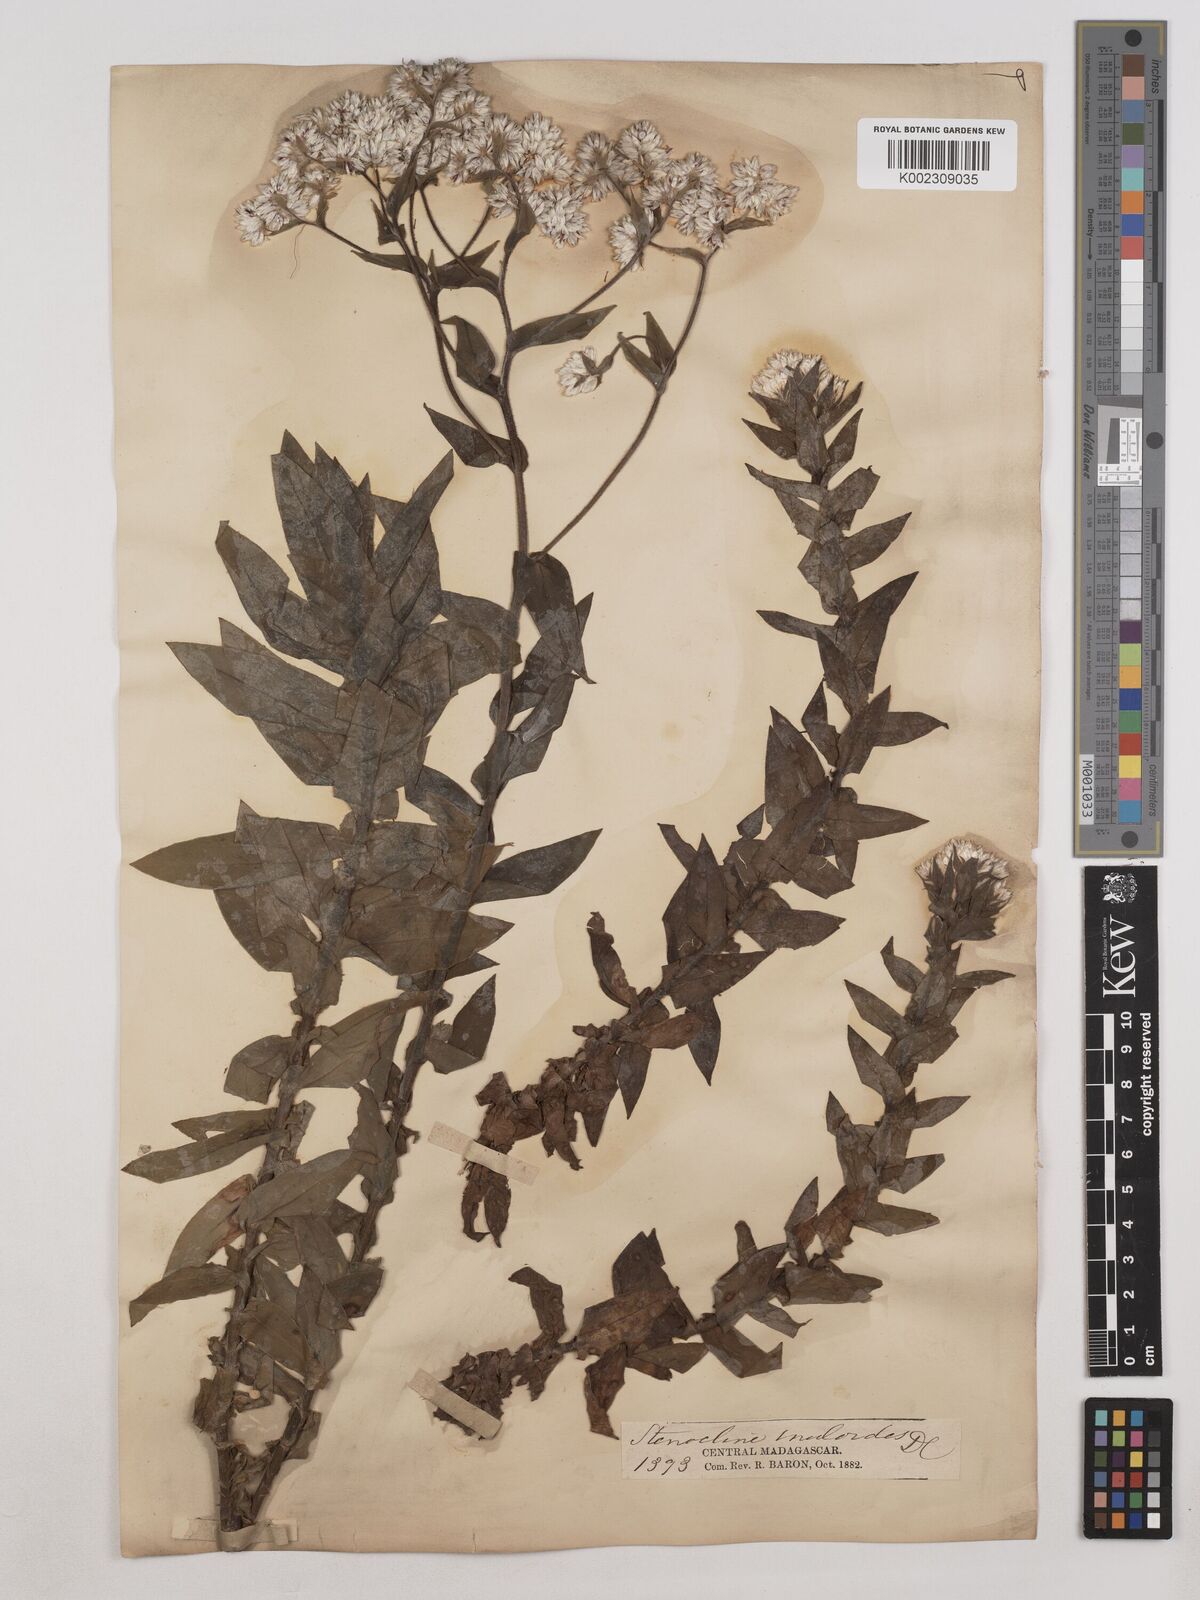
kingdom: Plantae
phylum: Tracheophyta
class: Magnoliopsida
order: Asterales
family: Asteraceae
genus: Stenocline
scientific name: Stenocline inuloides
